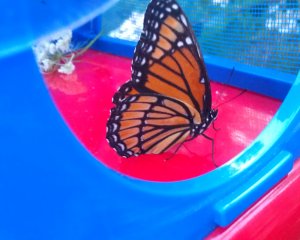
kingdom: Animalia
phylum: Arthropoda
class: Insecta
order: Lepidoptera
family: Nymphalidae
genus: Limenitis
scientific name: Limenitis archippus
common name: Viceroy
